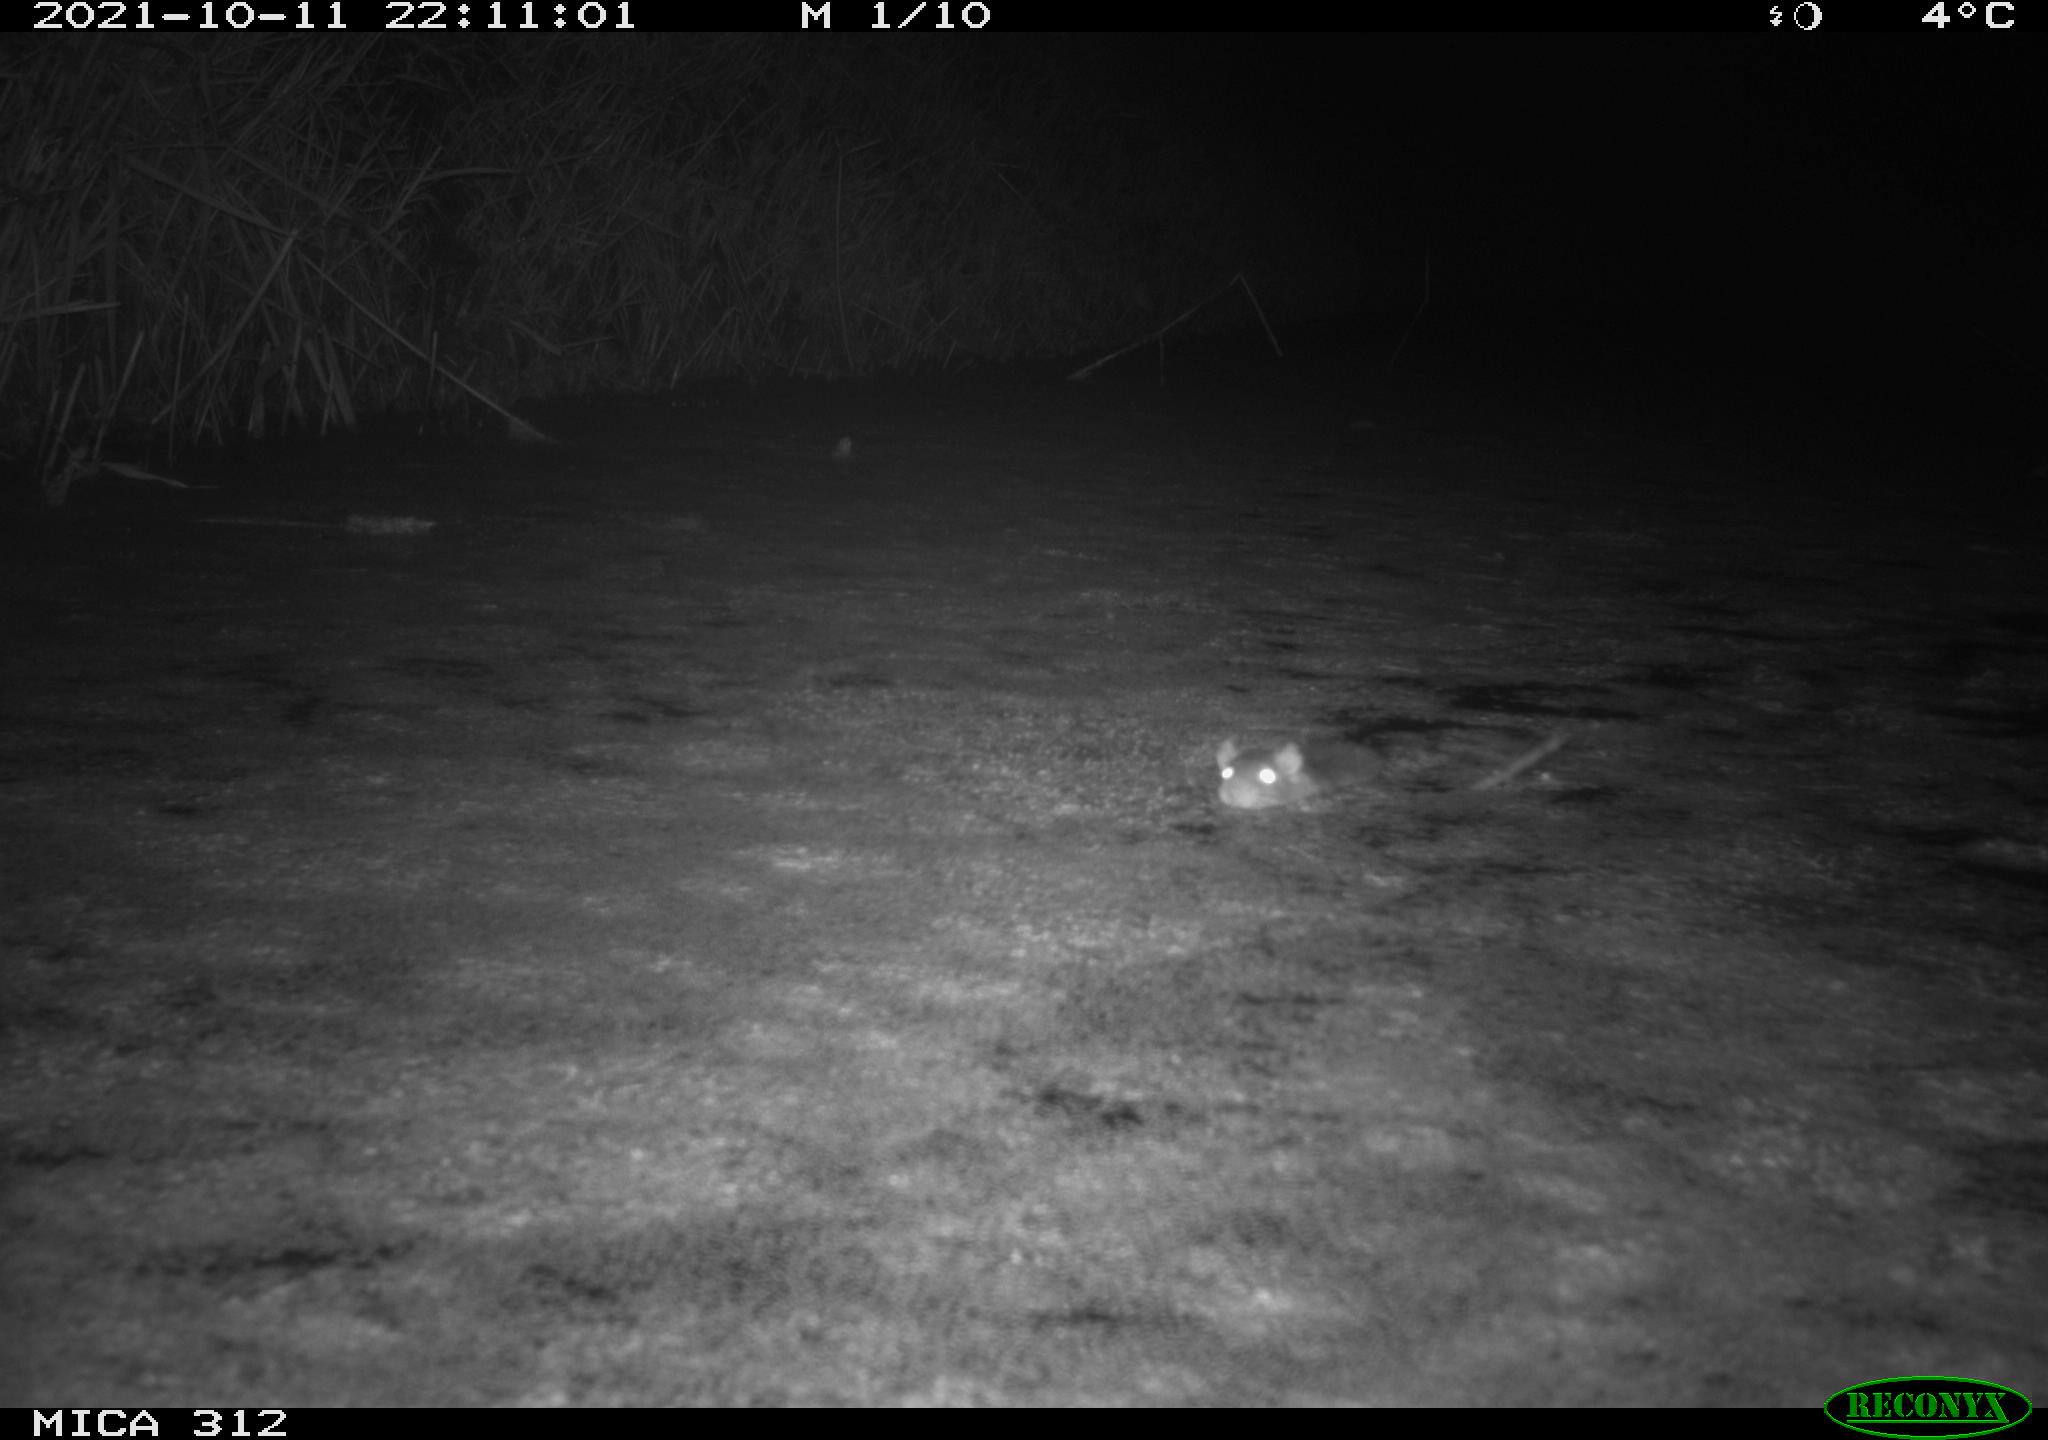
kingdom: Animalia
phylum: Chordata
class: Mammalia
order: Rodentia
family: Muridae
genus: Rattus
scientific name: Rattus norvegicus
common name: Brown rat
